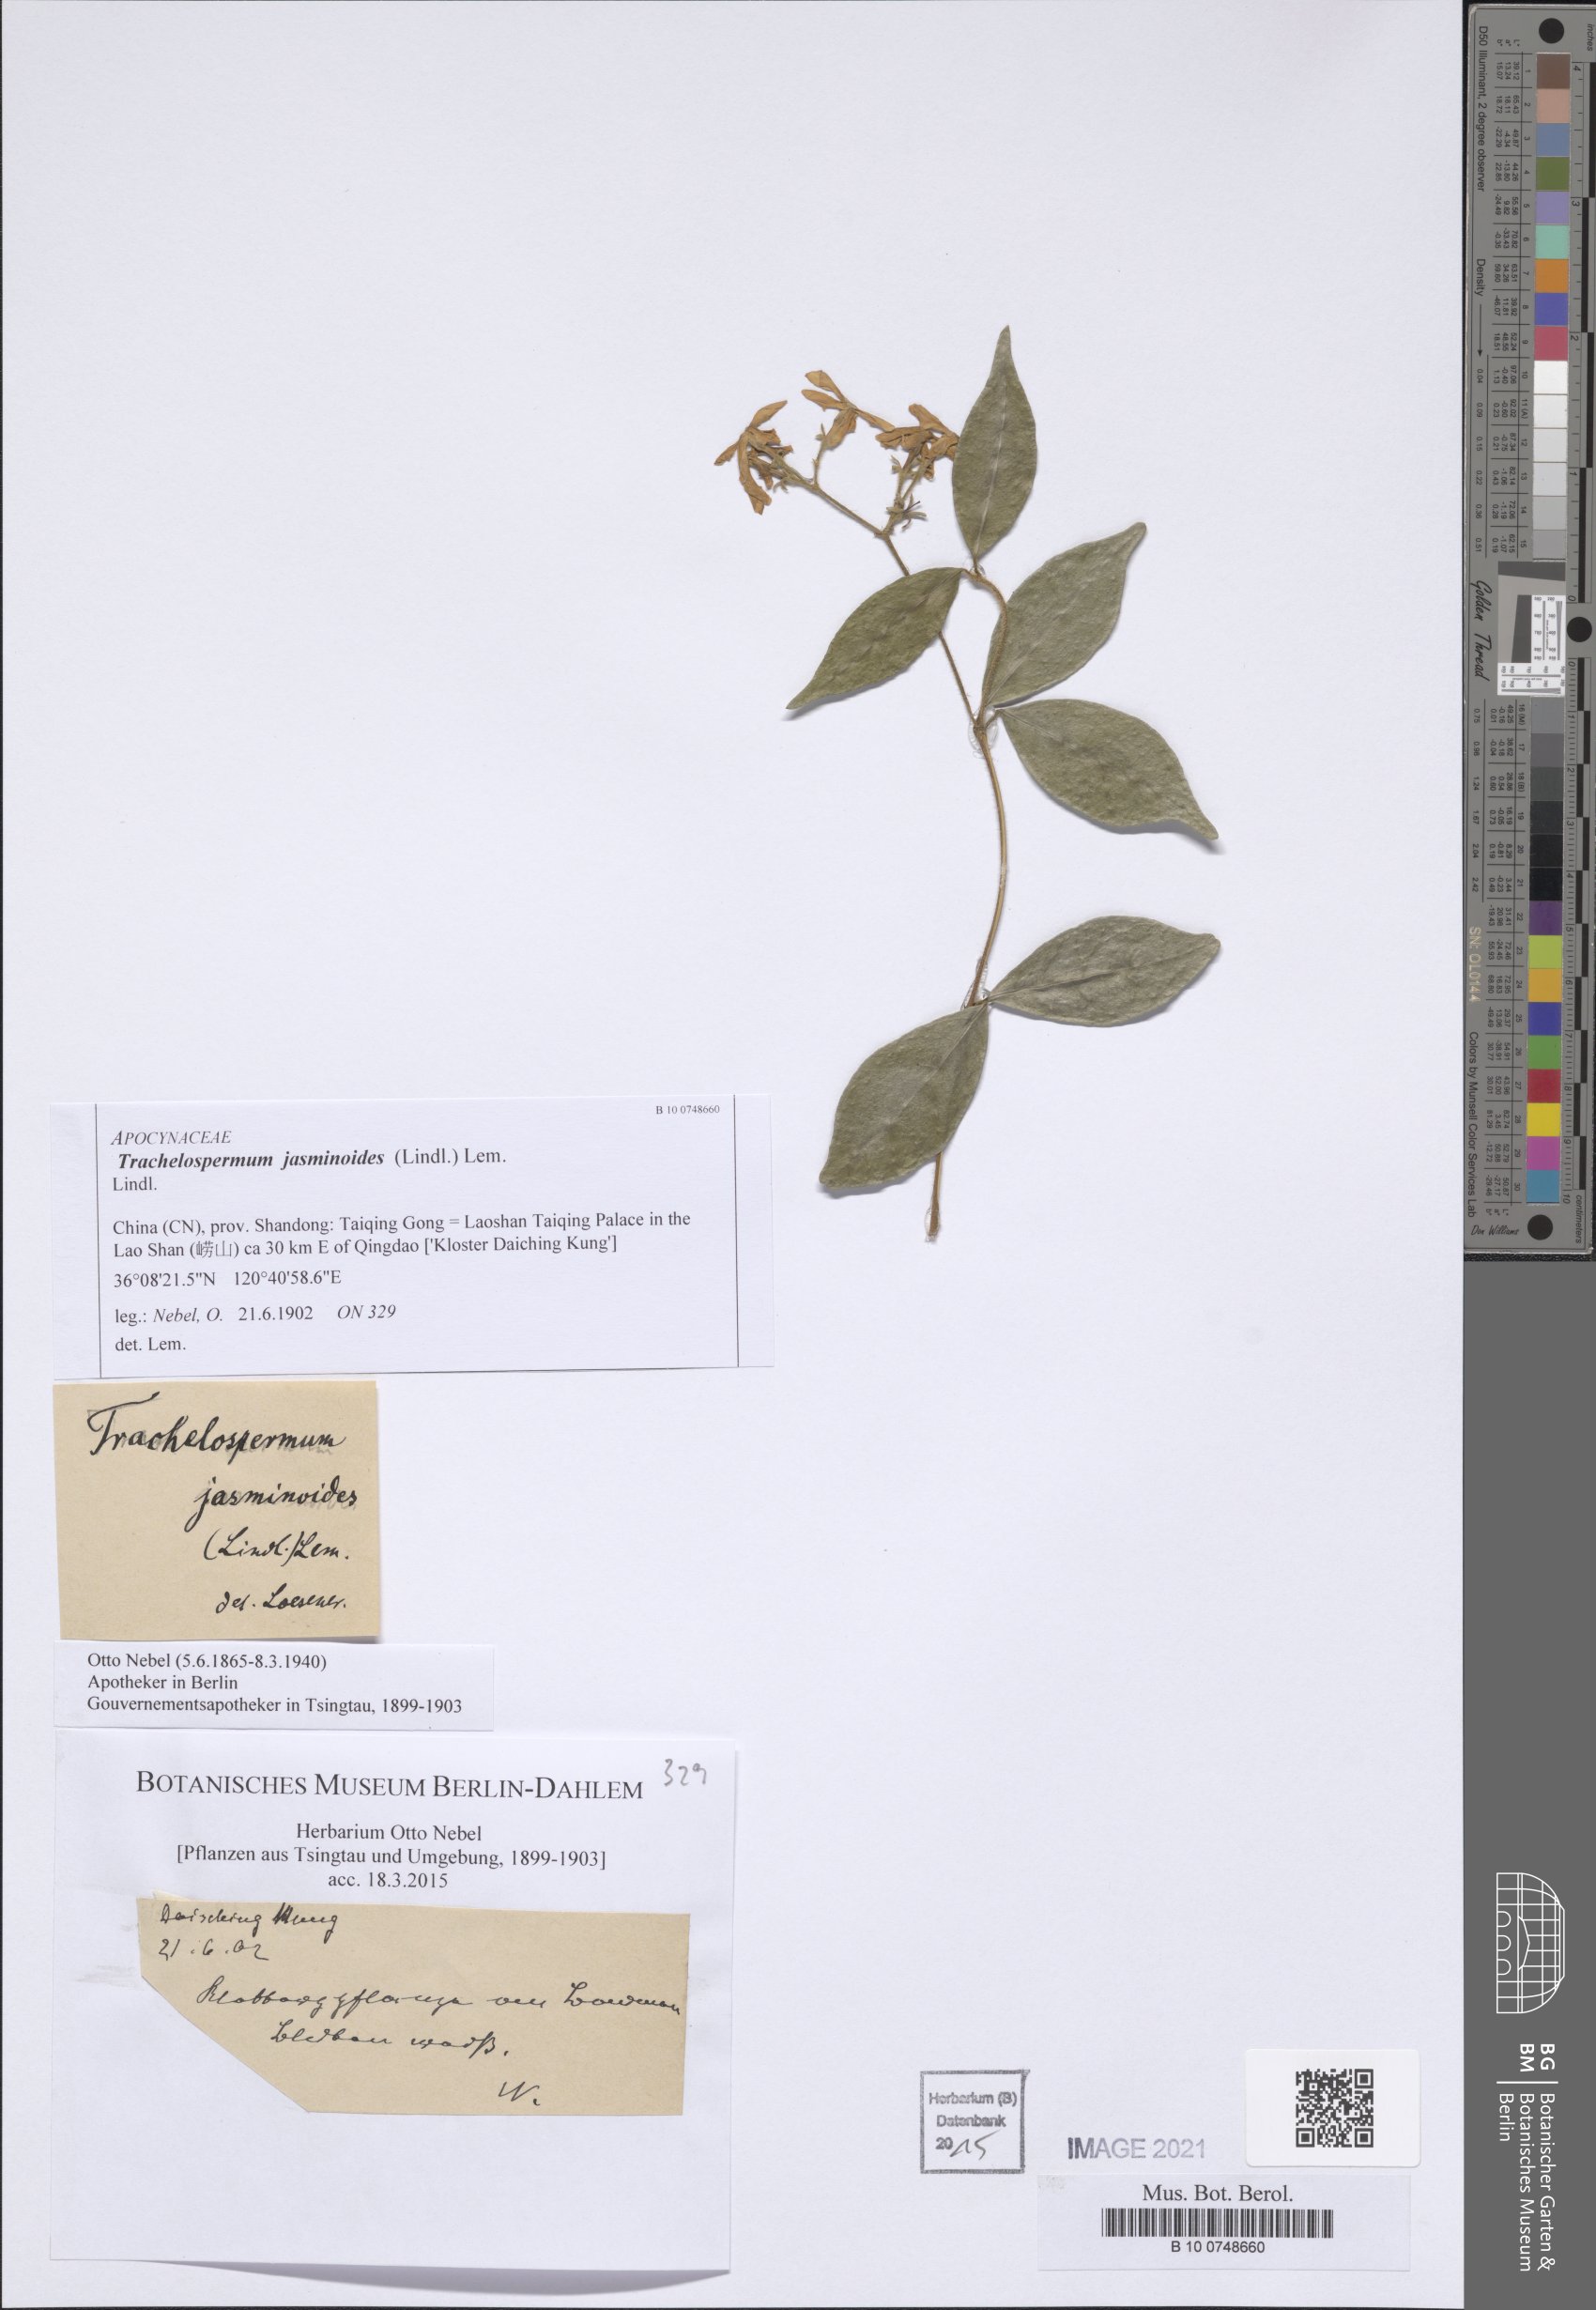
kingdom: Plantae
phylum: Tracheophyta
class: Magnoliopsida
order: Gentianales
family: Apocynaceae
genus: Trachelospermum
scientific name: Trachelospermum jasminoides
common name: Confederate jasmine
